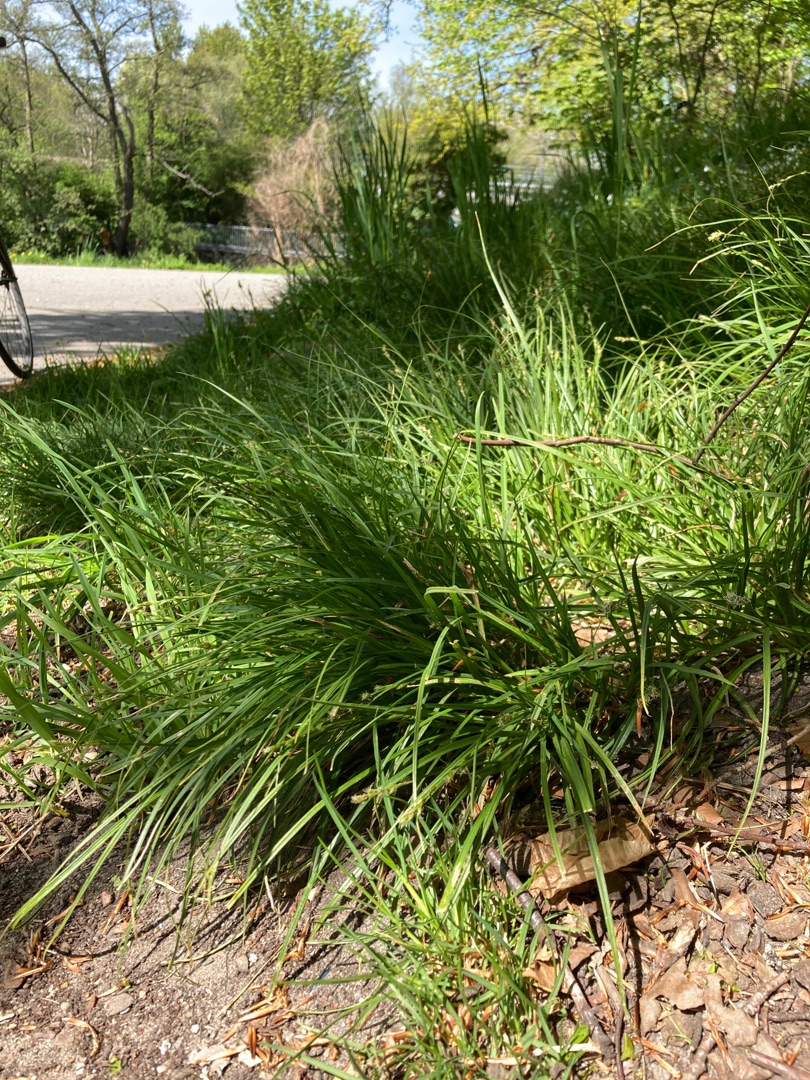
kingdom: Plantae
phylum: Tracheophyta
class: Liliopsida
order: Poales
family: Cyperaceae
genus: Carex
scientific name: Carex divulsa
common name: Mellembrudt star
